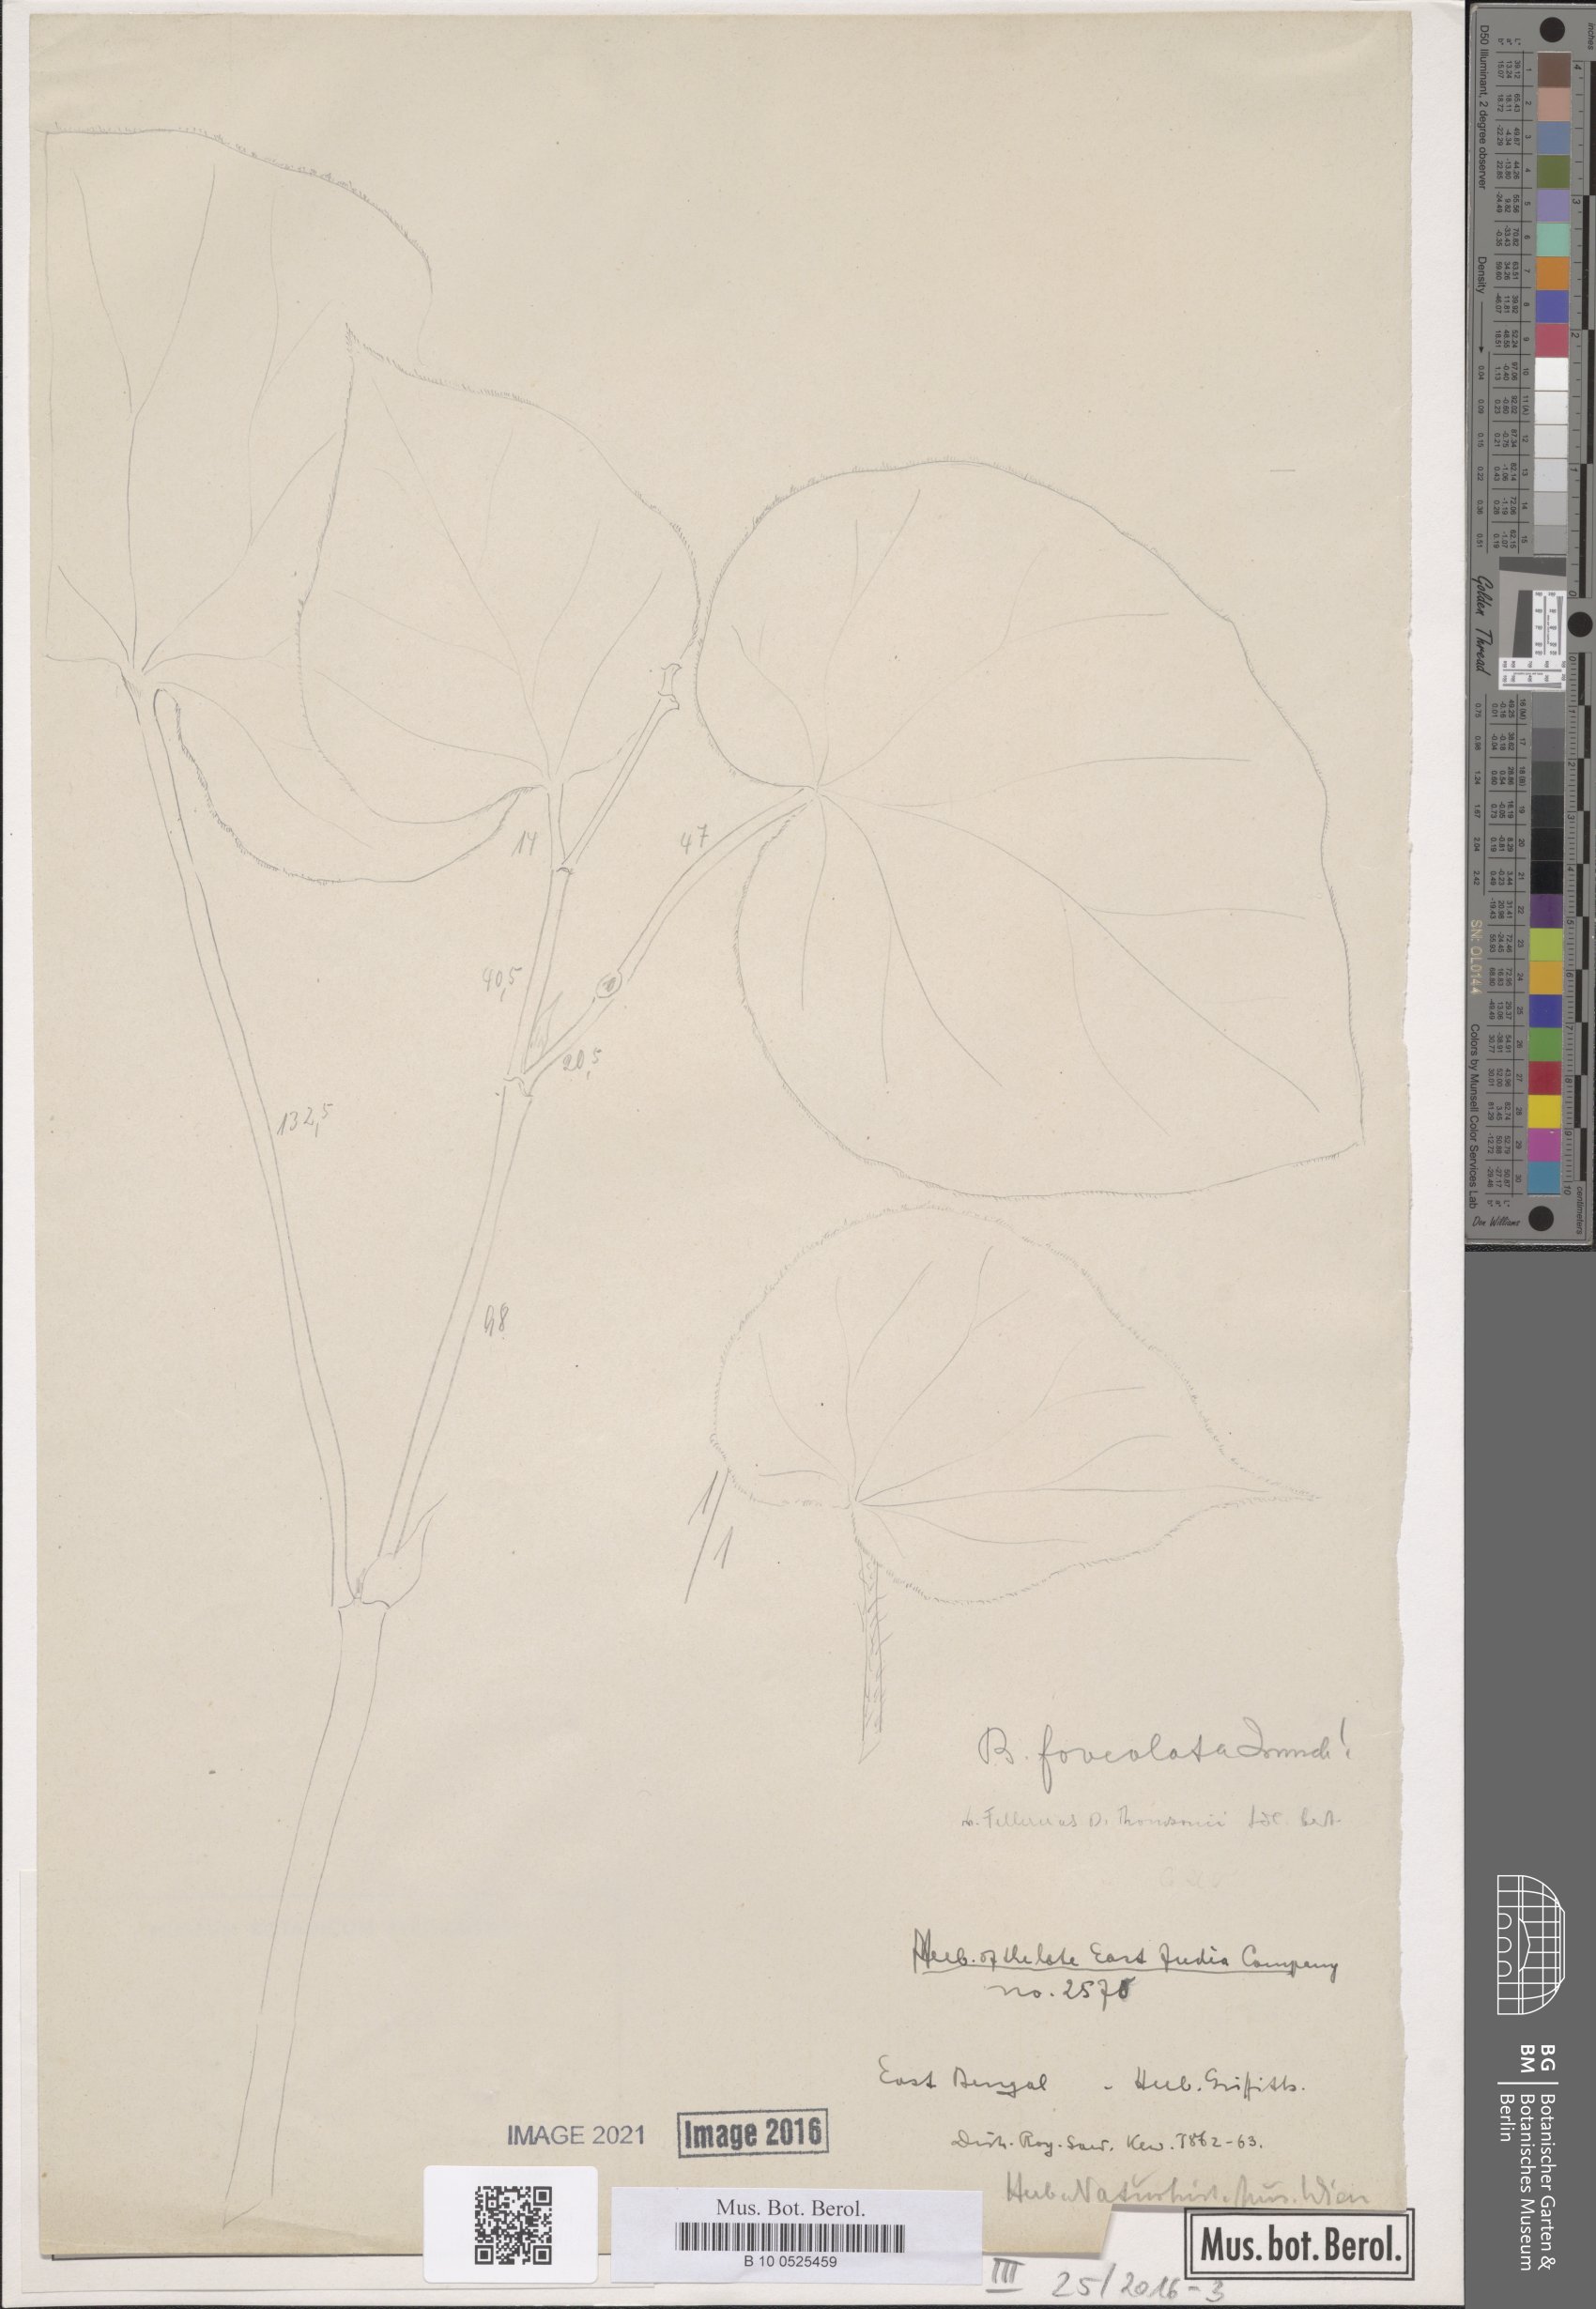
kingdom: Plantae
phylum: Tracheophyta
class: Magnoliopsida
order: Cucurbitales
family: Begoniaceae
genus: Begonia
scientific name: Begonia foveolata
